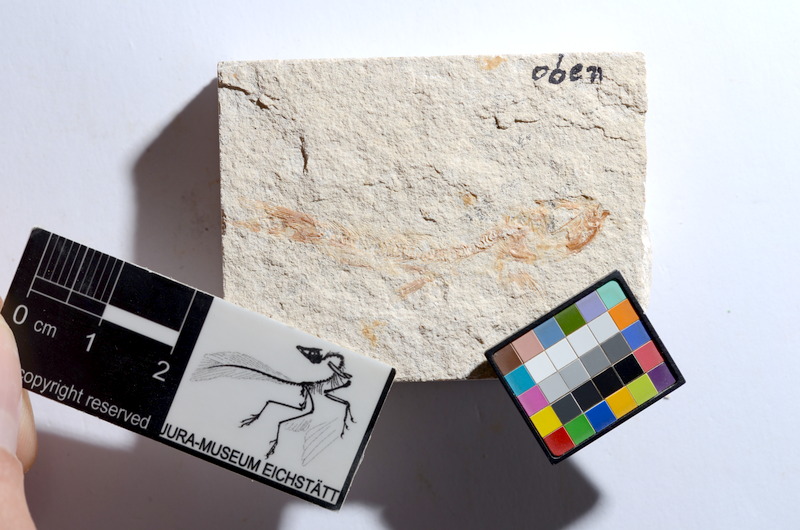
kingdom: Animalia
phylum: Chordata
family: Ascalaboidae
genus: Tharsis
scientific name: Tharsis dubius
